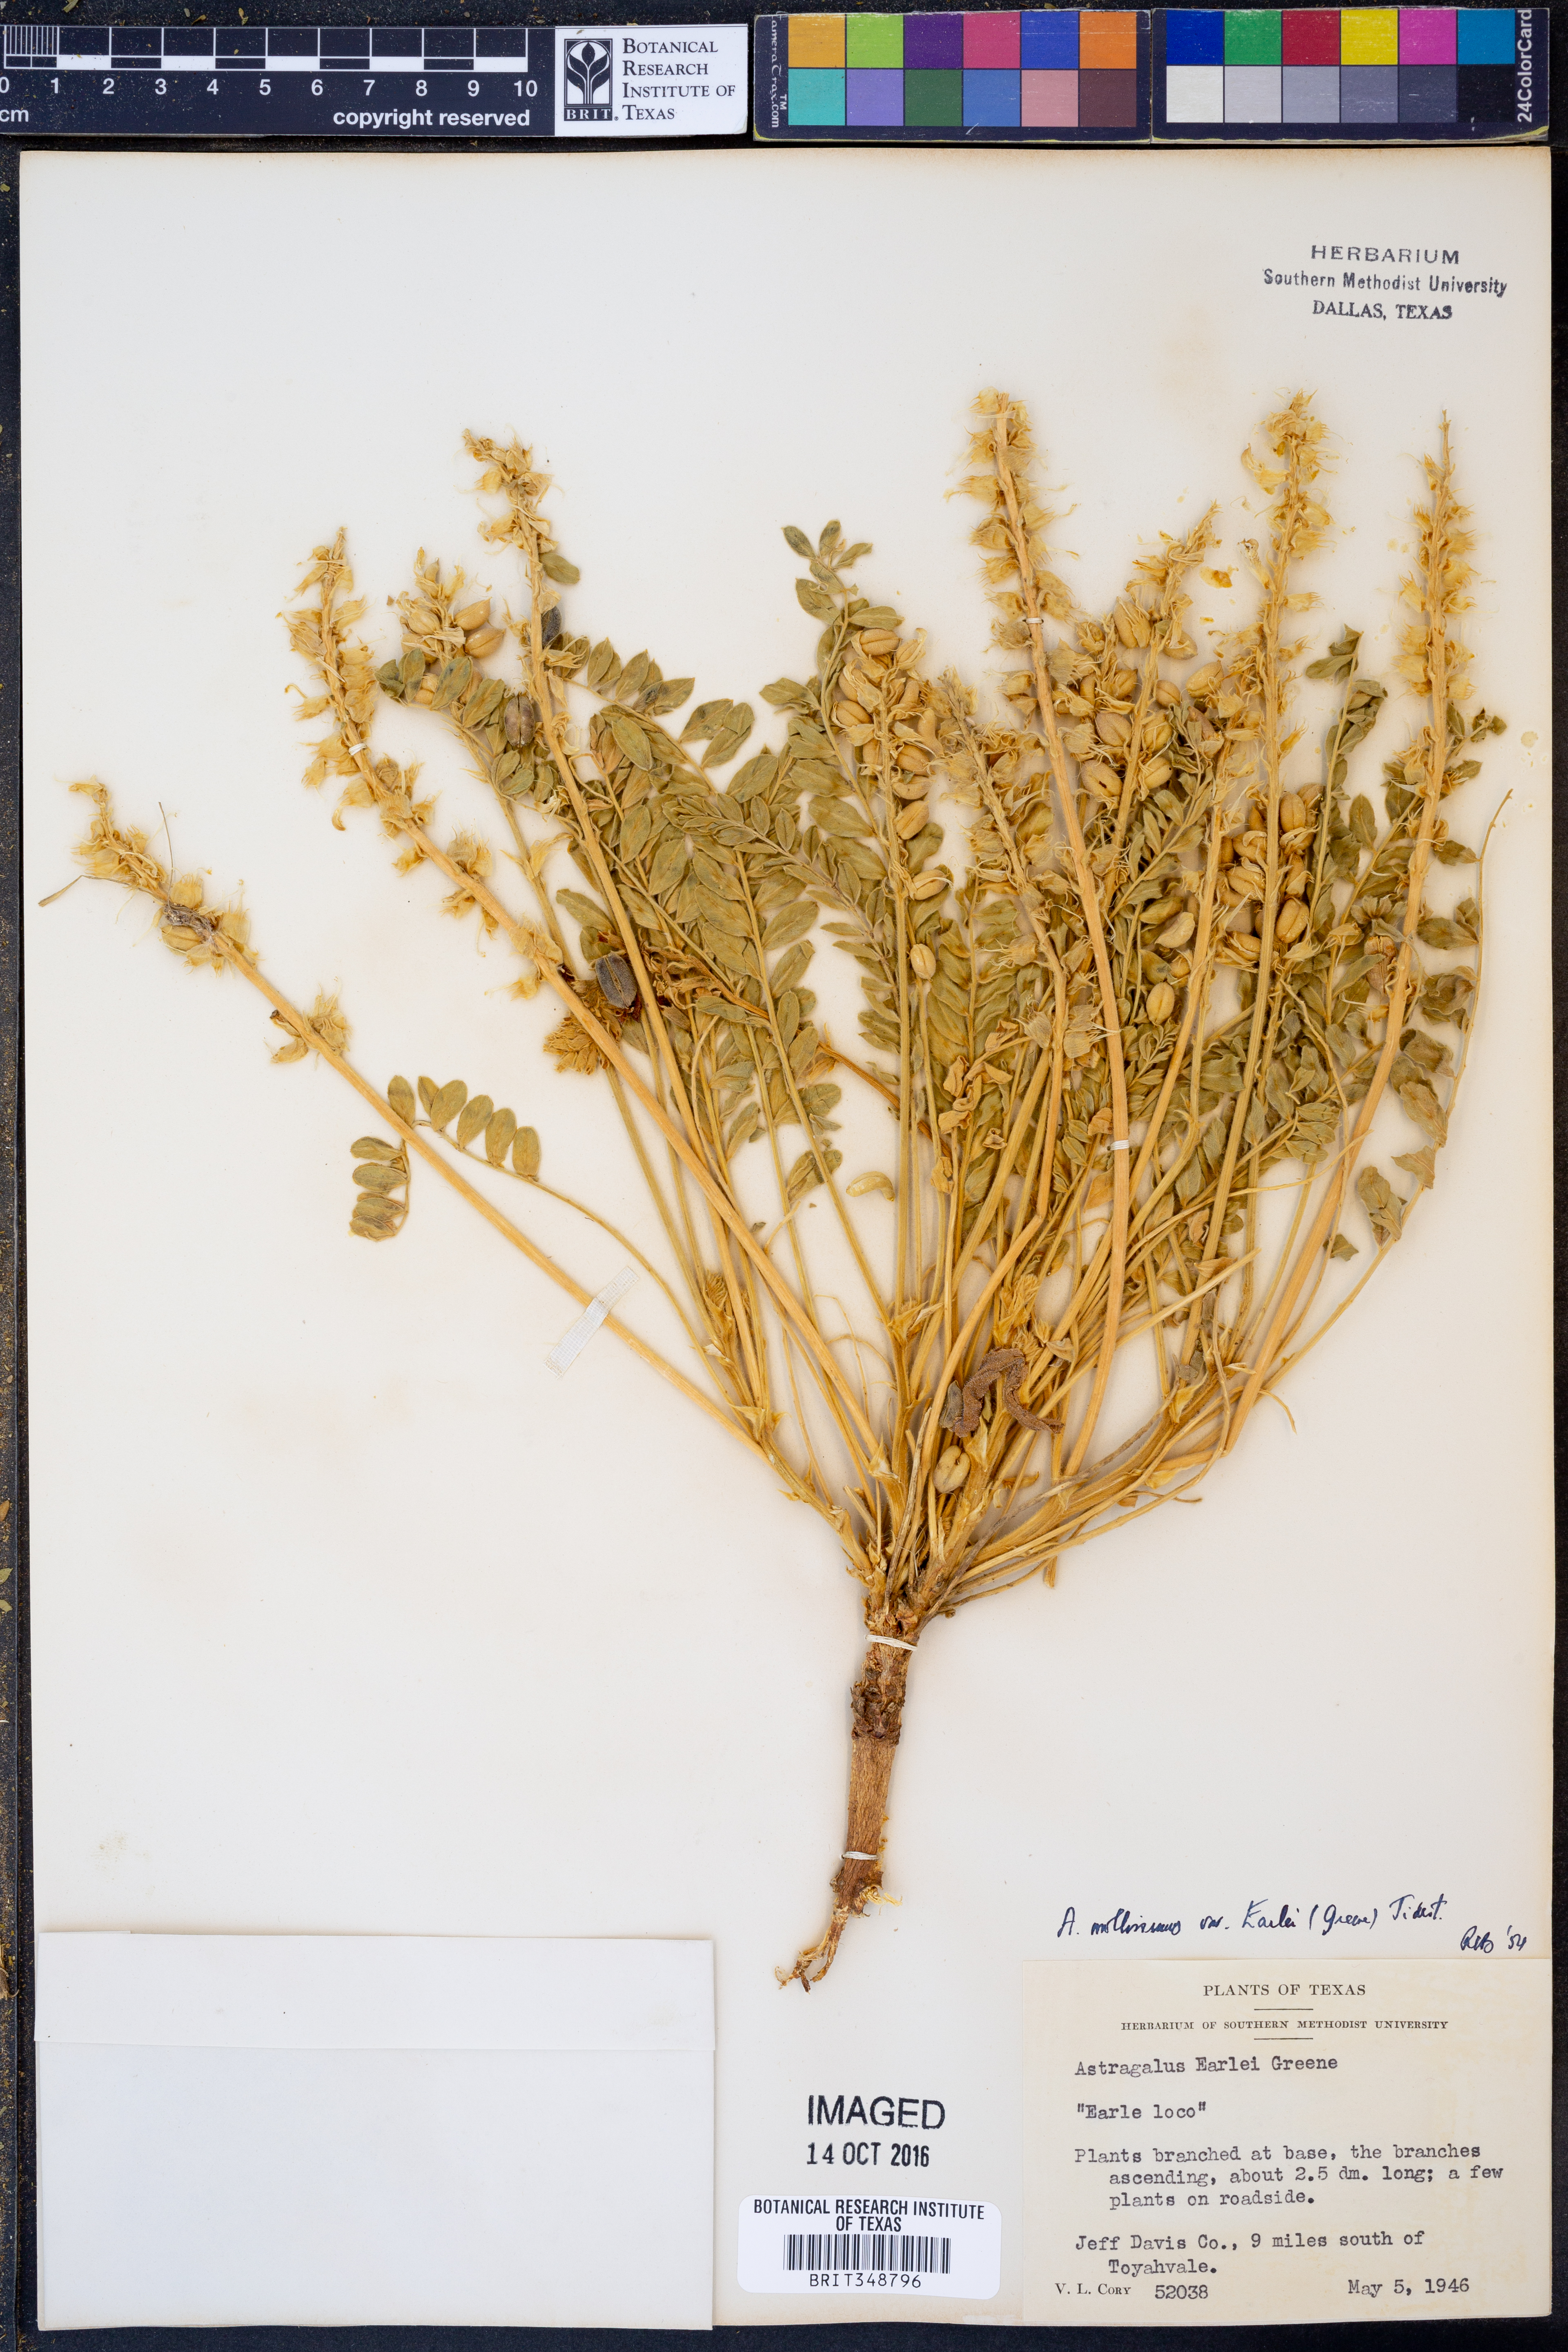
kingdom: Plantae
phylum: Tracheophyta
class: Magnoliopsida
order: Fabales
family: Fabaceae
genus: Astragalus
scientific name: Astragalus mollissimus
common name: Woolly locoweed
